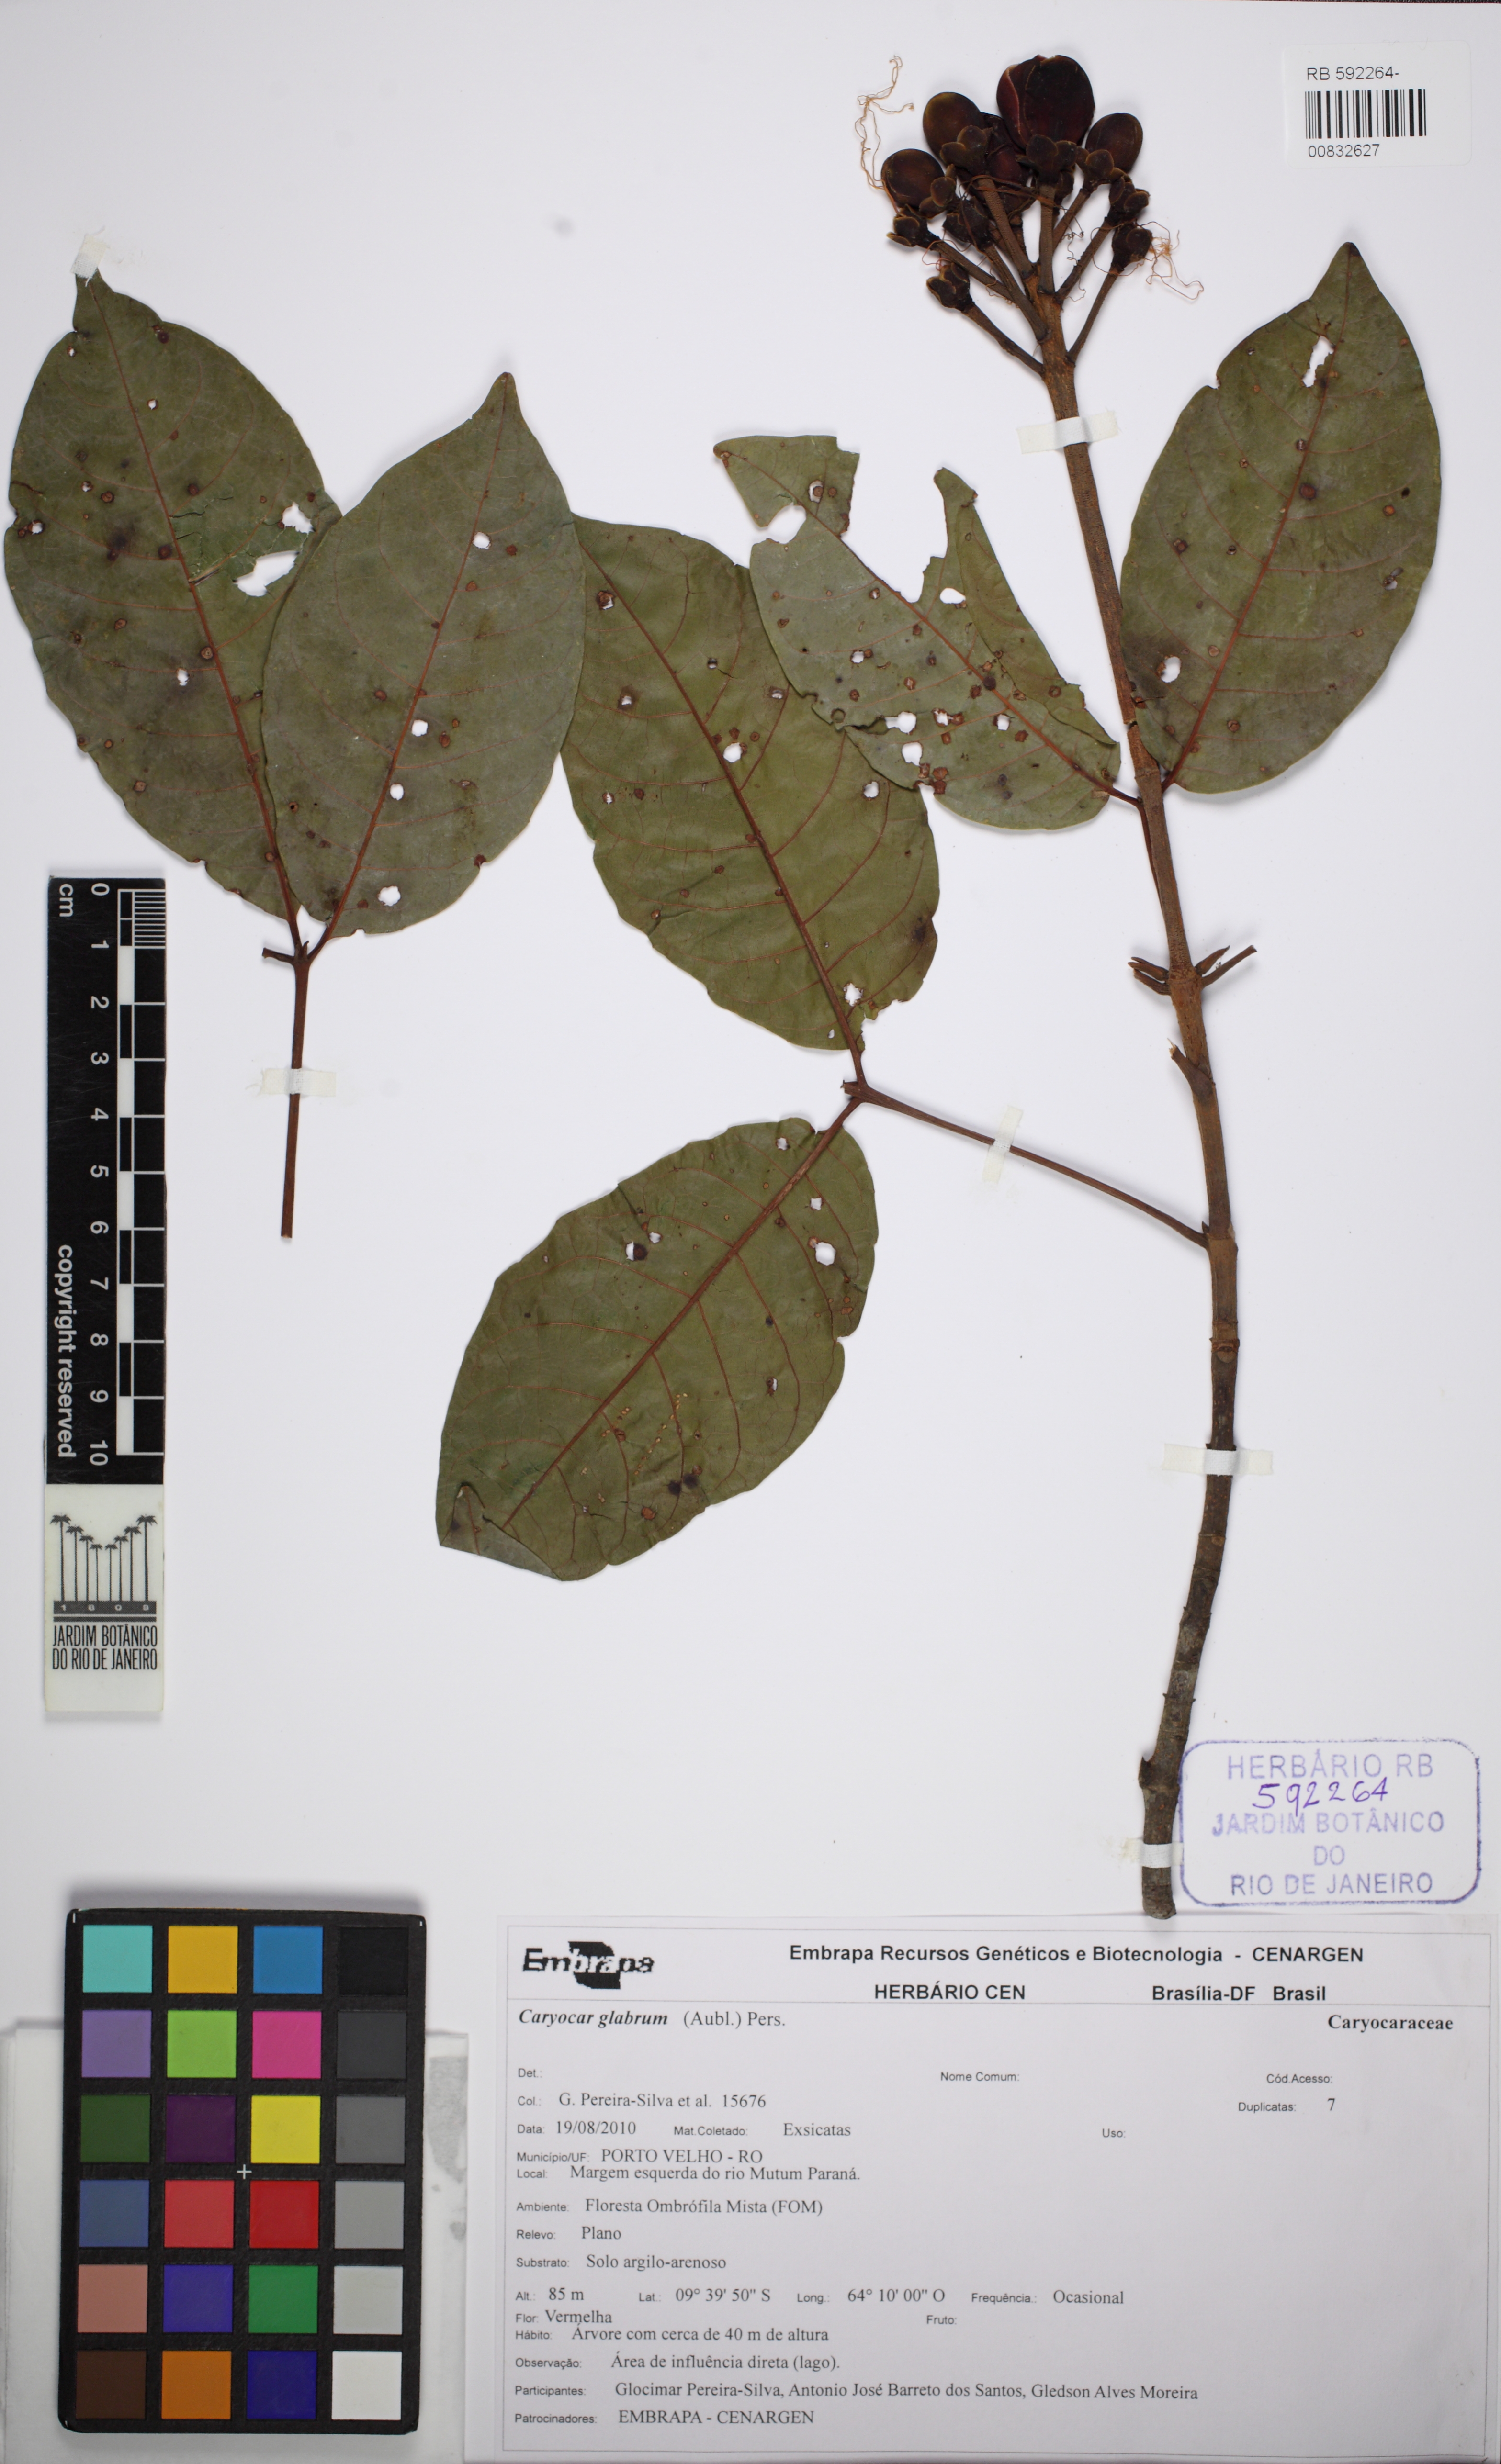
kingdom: Plantae
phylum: Tracheophyta
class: Magnoliopsida
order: Malpighiales
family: Caryocaraceae
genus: Caryocar
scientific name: Caryocar glabrum
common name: Bat's souari
